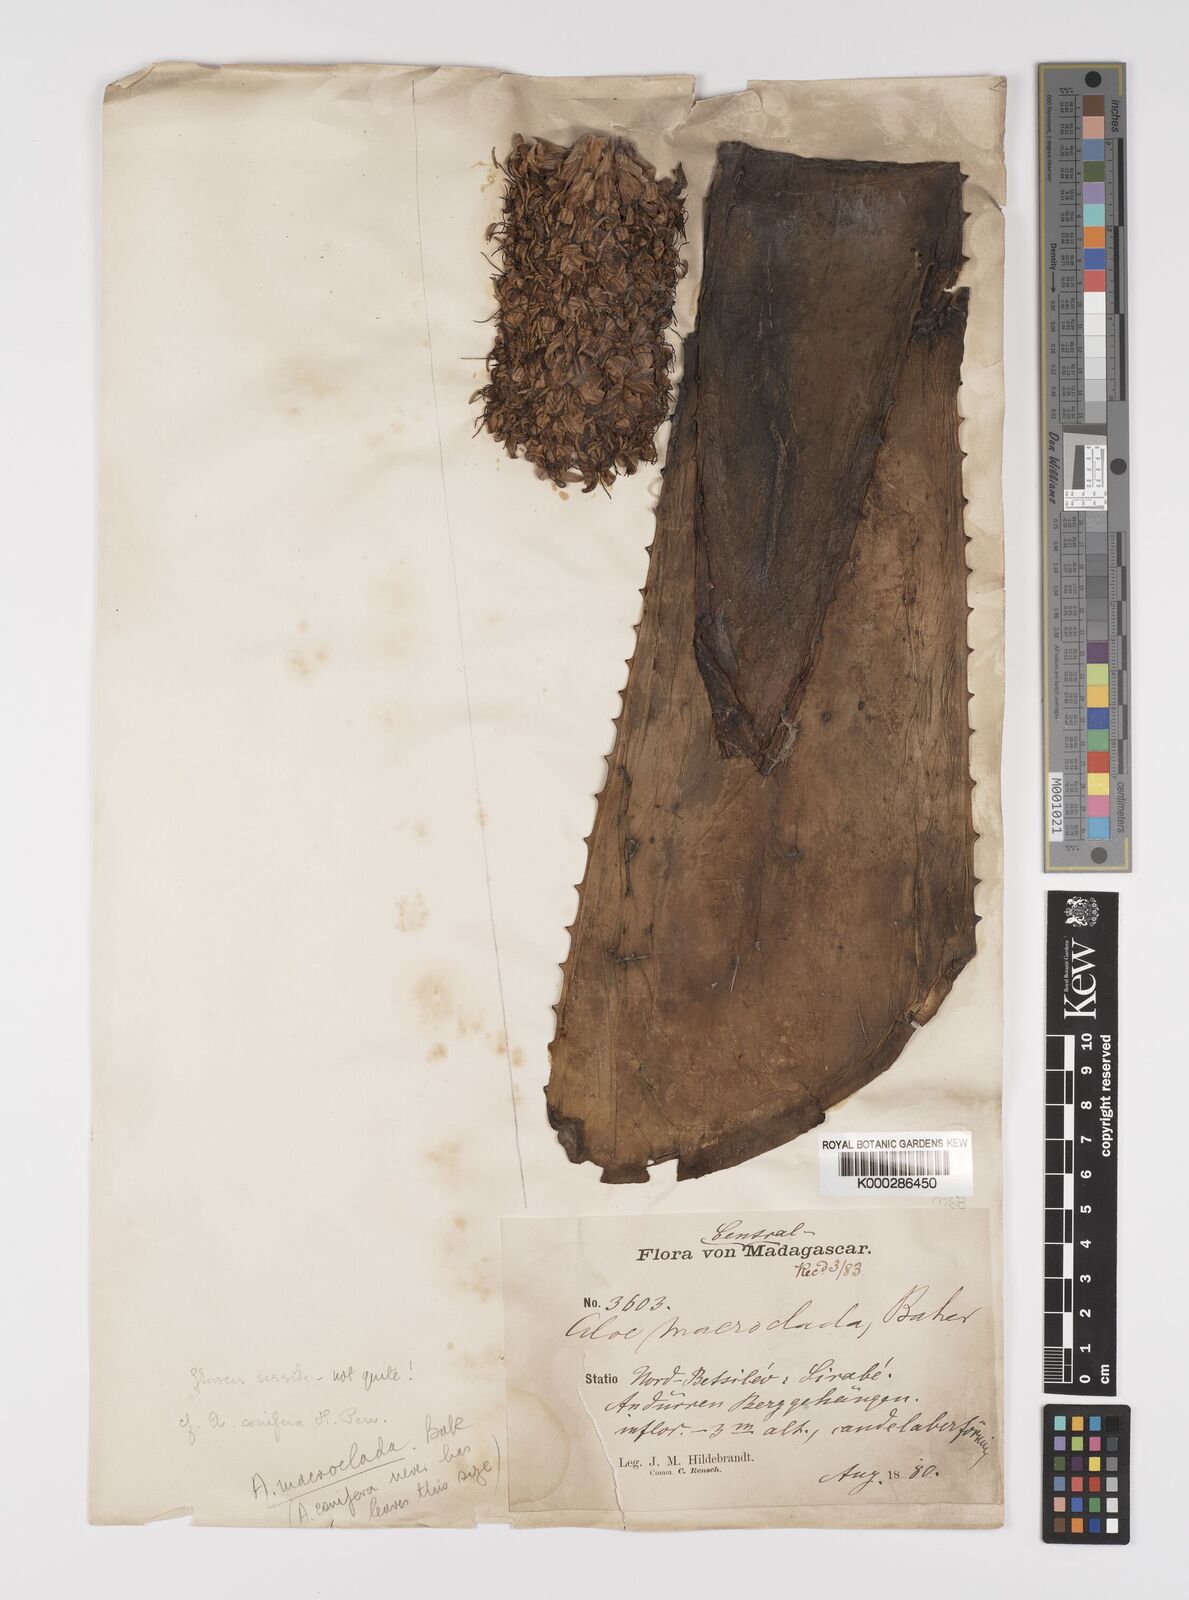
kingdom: Plantae
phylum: Tracheophyta
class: Liliopsida
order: Asparagales
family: Asphodelaceae
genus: Aloe
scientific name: Aloe macroclada
